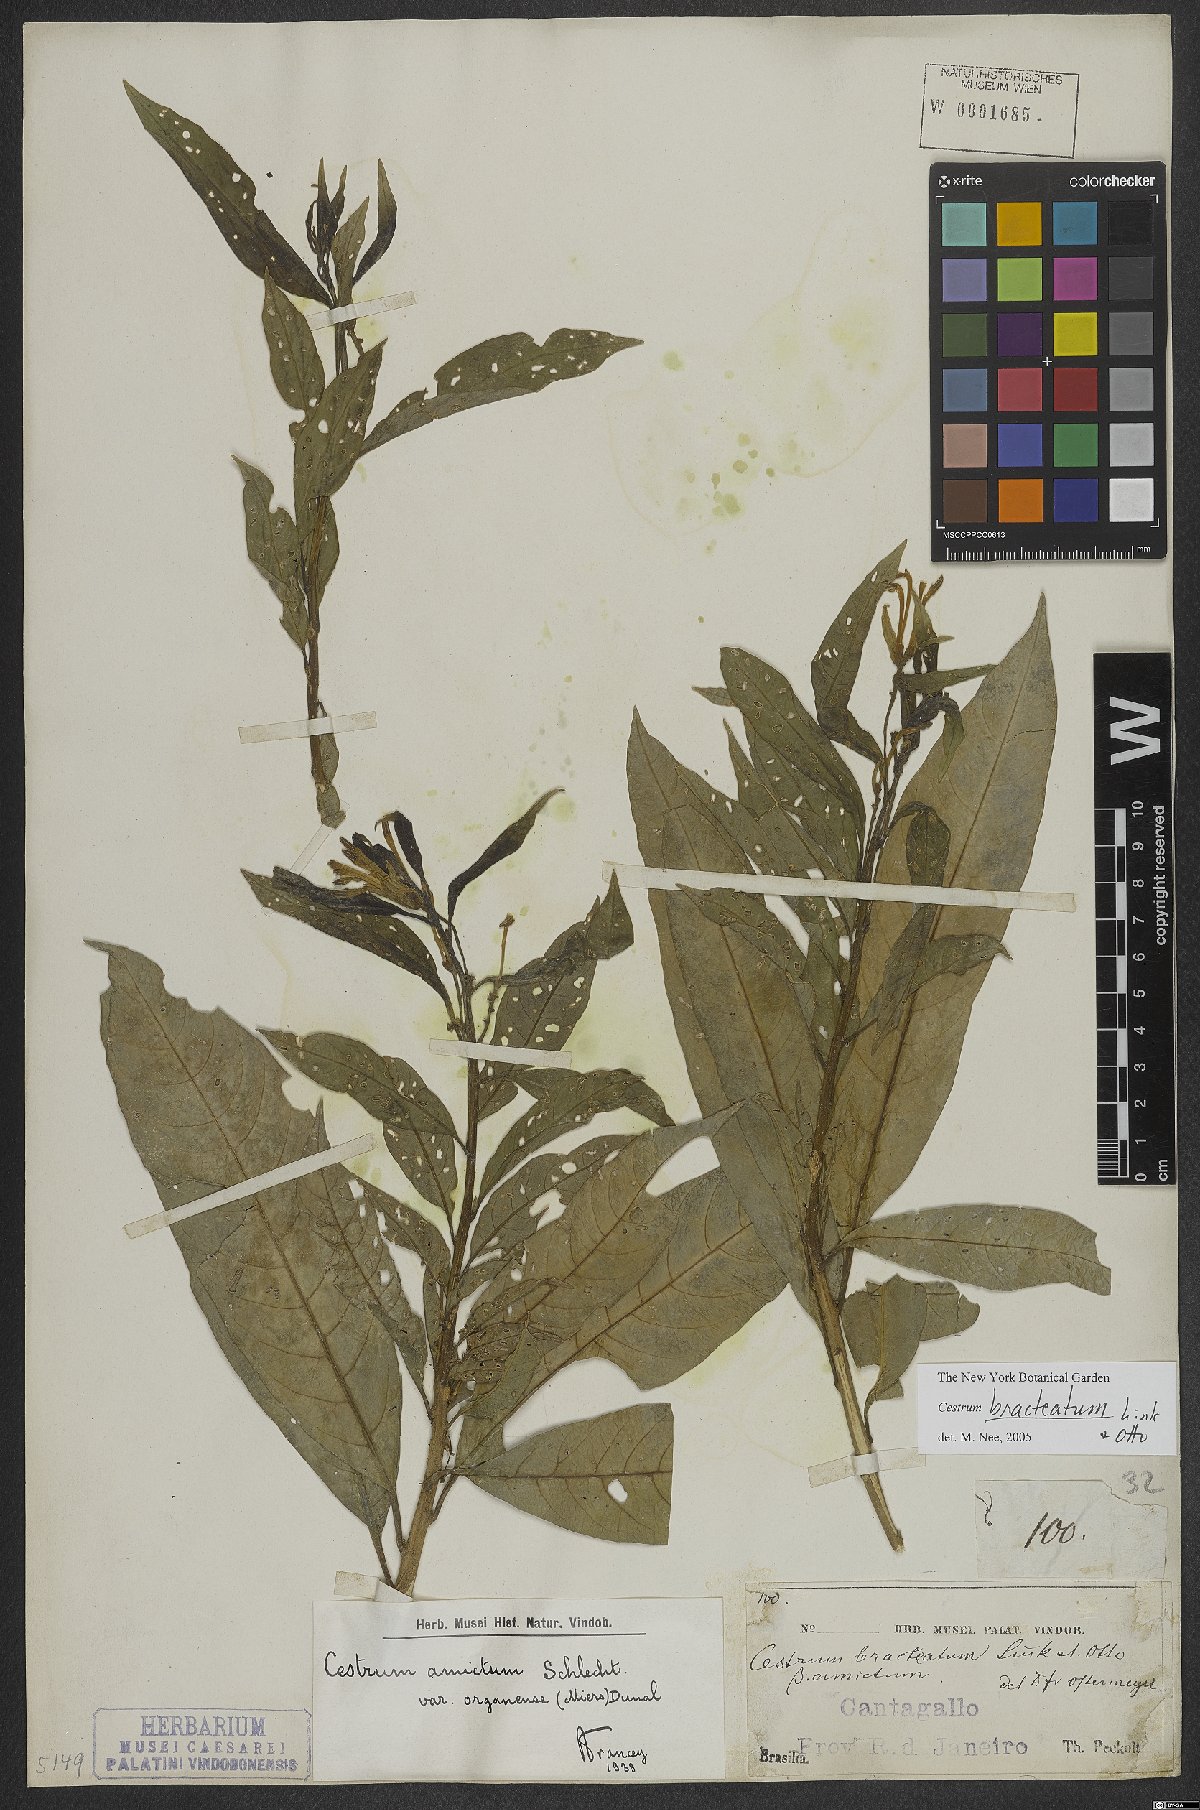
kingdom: Plantae
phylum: Tracheophyta
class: Magnoliopsida
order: Solanales
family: Solanaceae
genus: Cestrum
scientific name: Cestrum bracteatum
